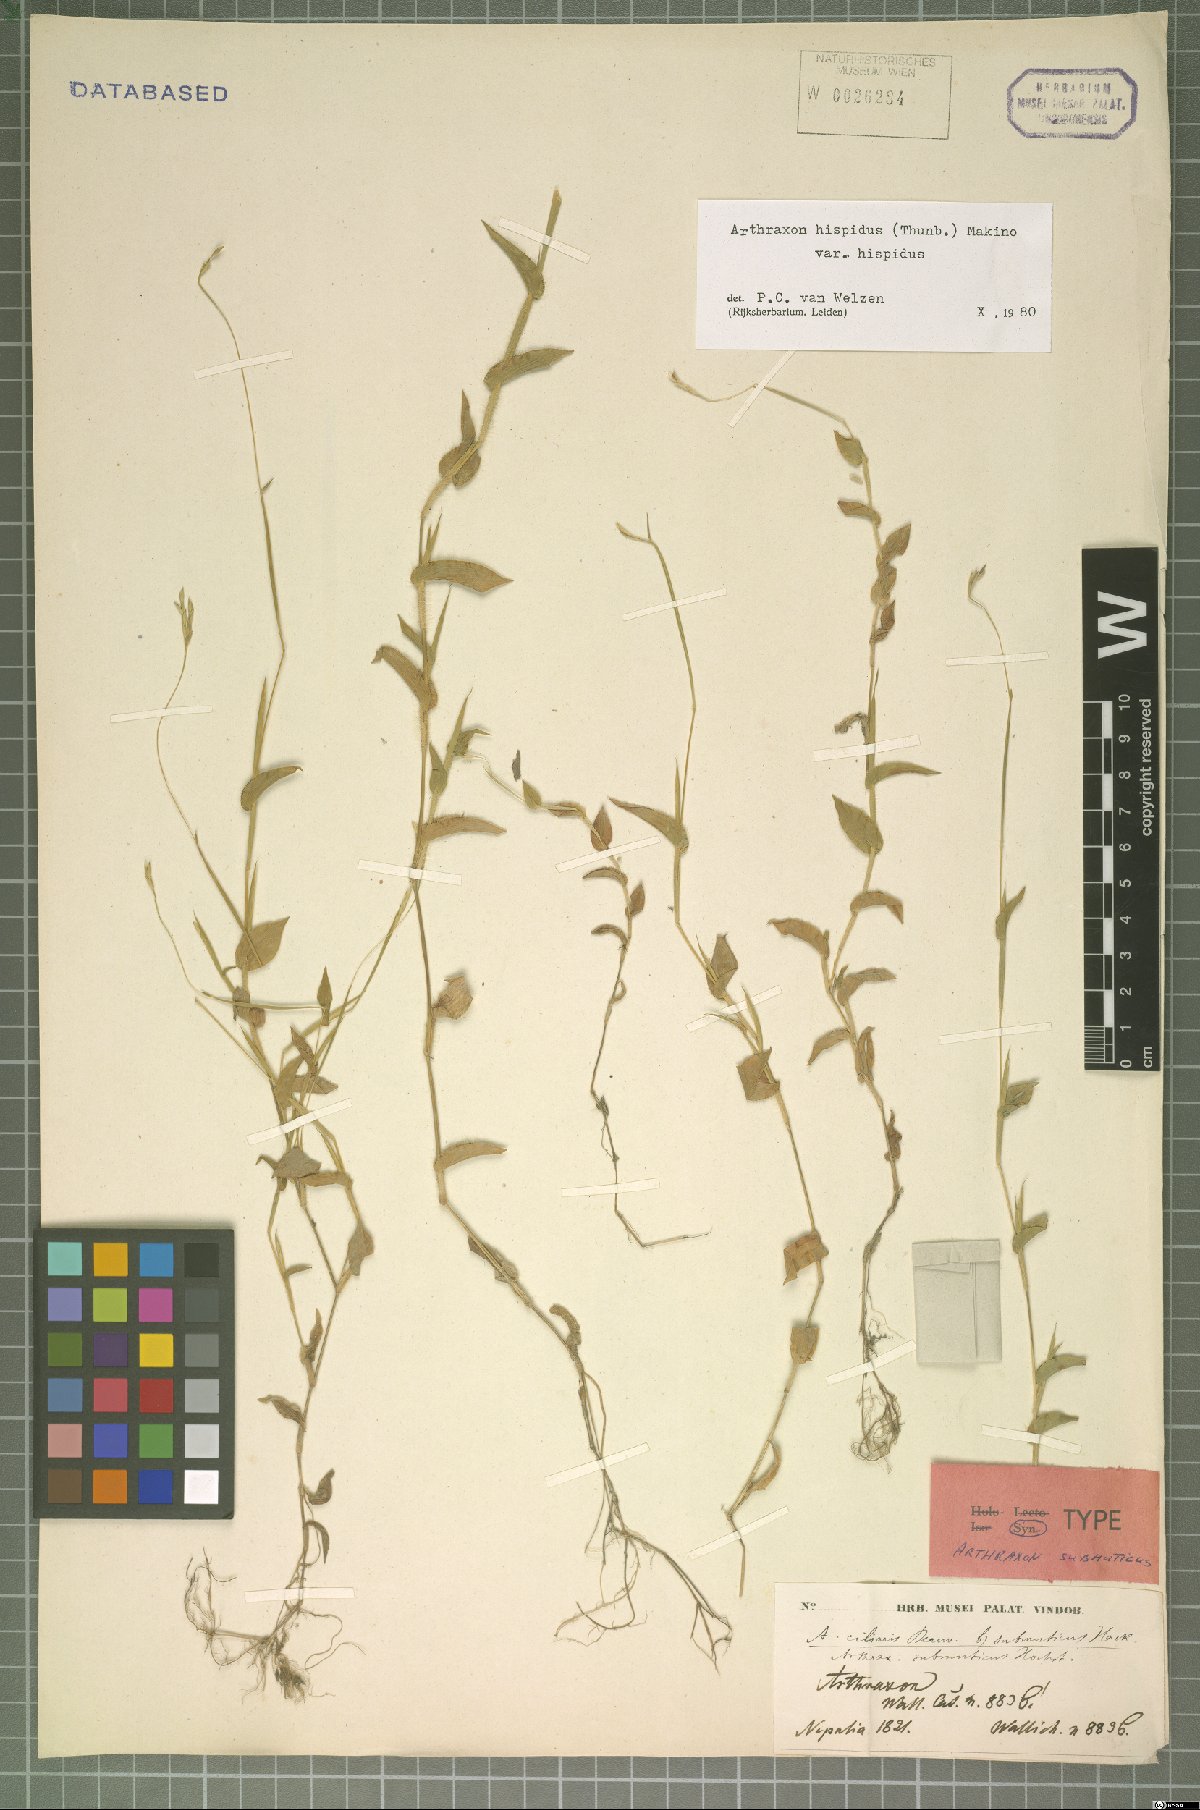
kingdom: Plantae
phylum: Tracheophyta
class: Liliopsida
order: Poales
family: Poaceae
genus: Arthraxon
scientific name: Arthraxon hispidus
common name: Small carpgrass
